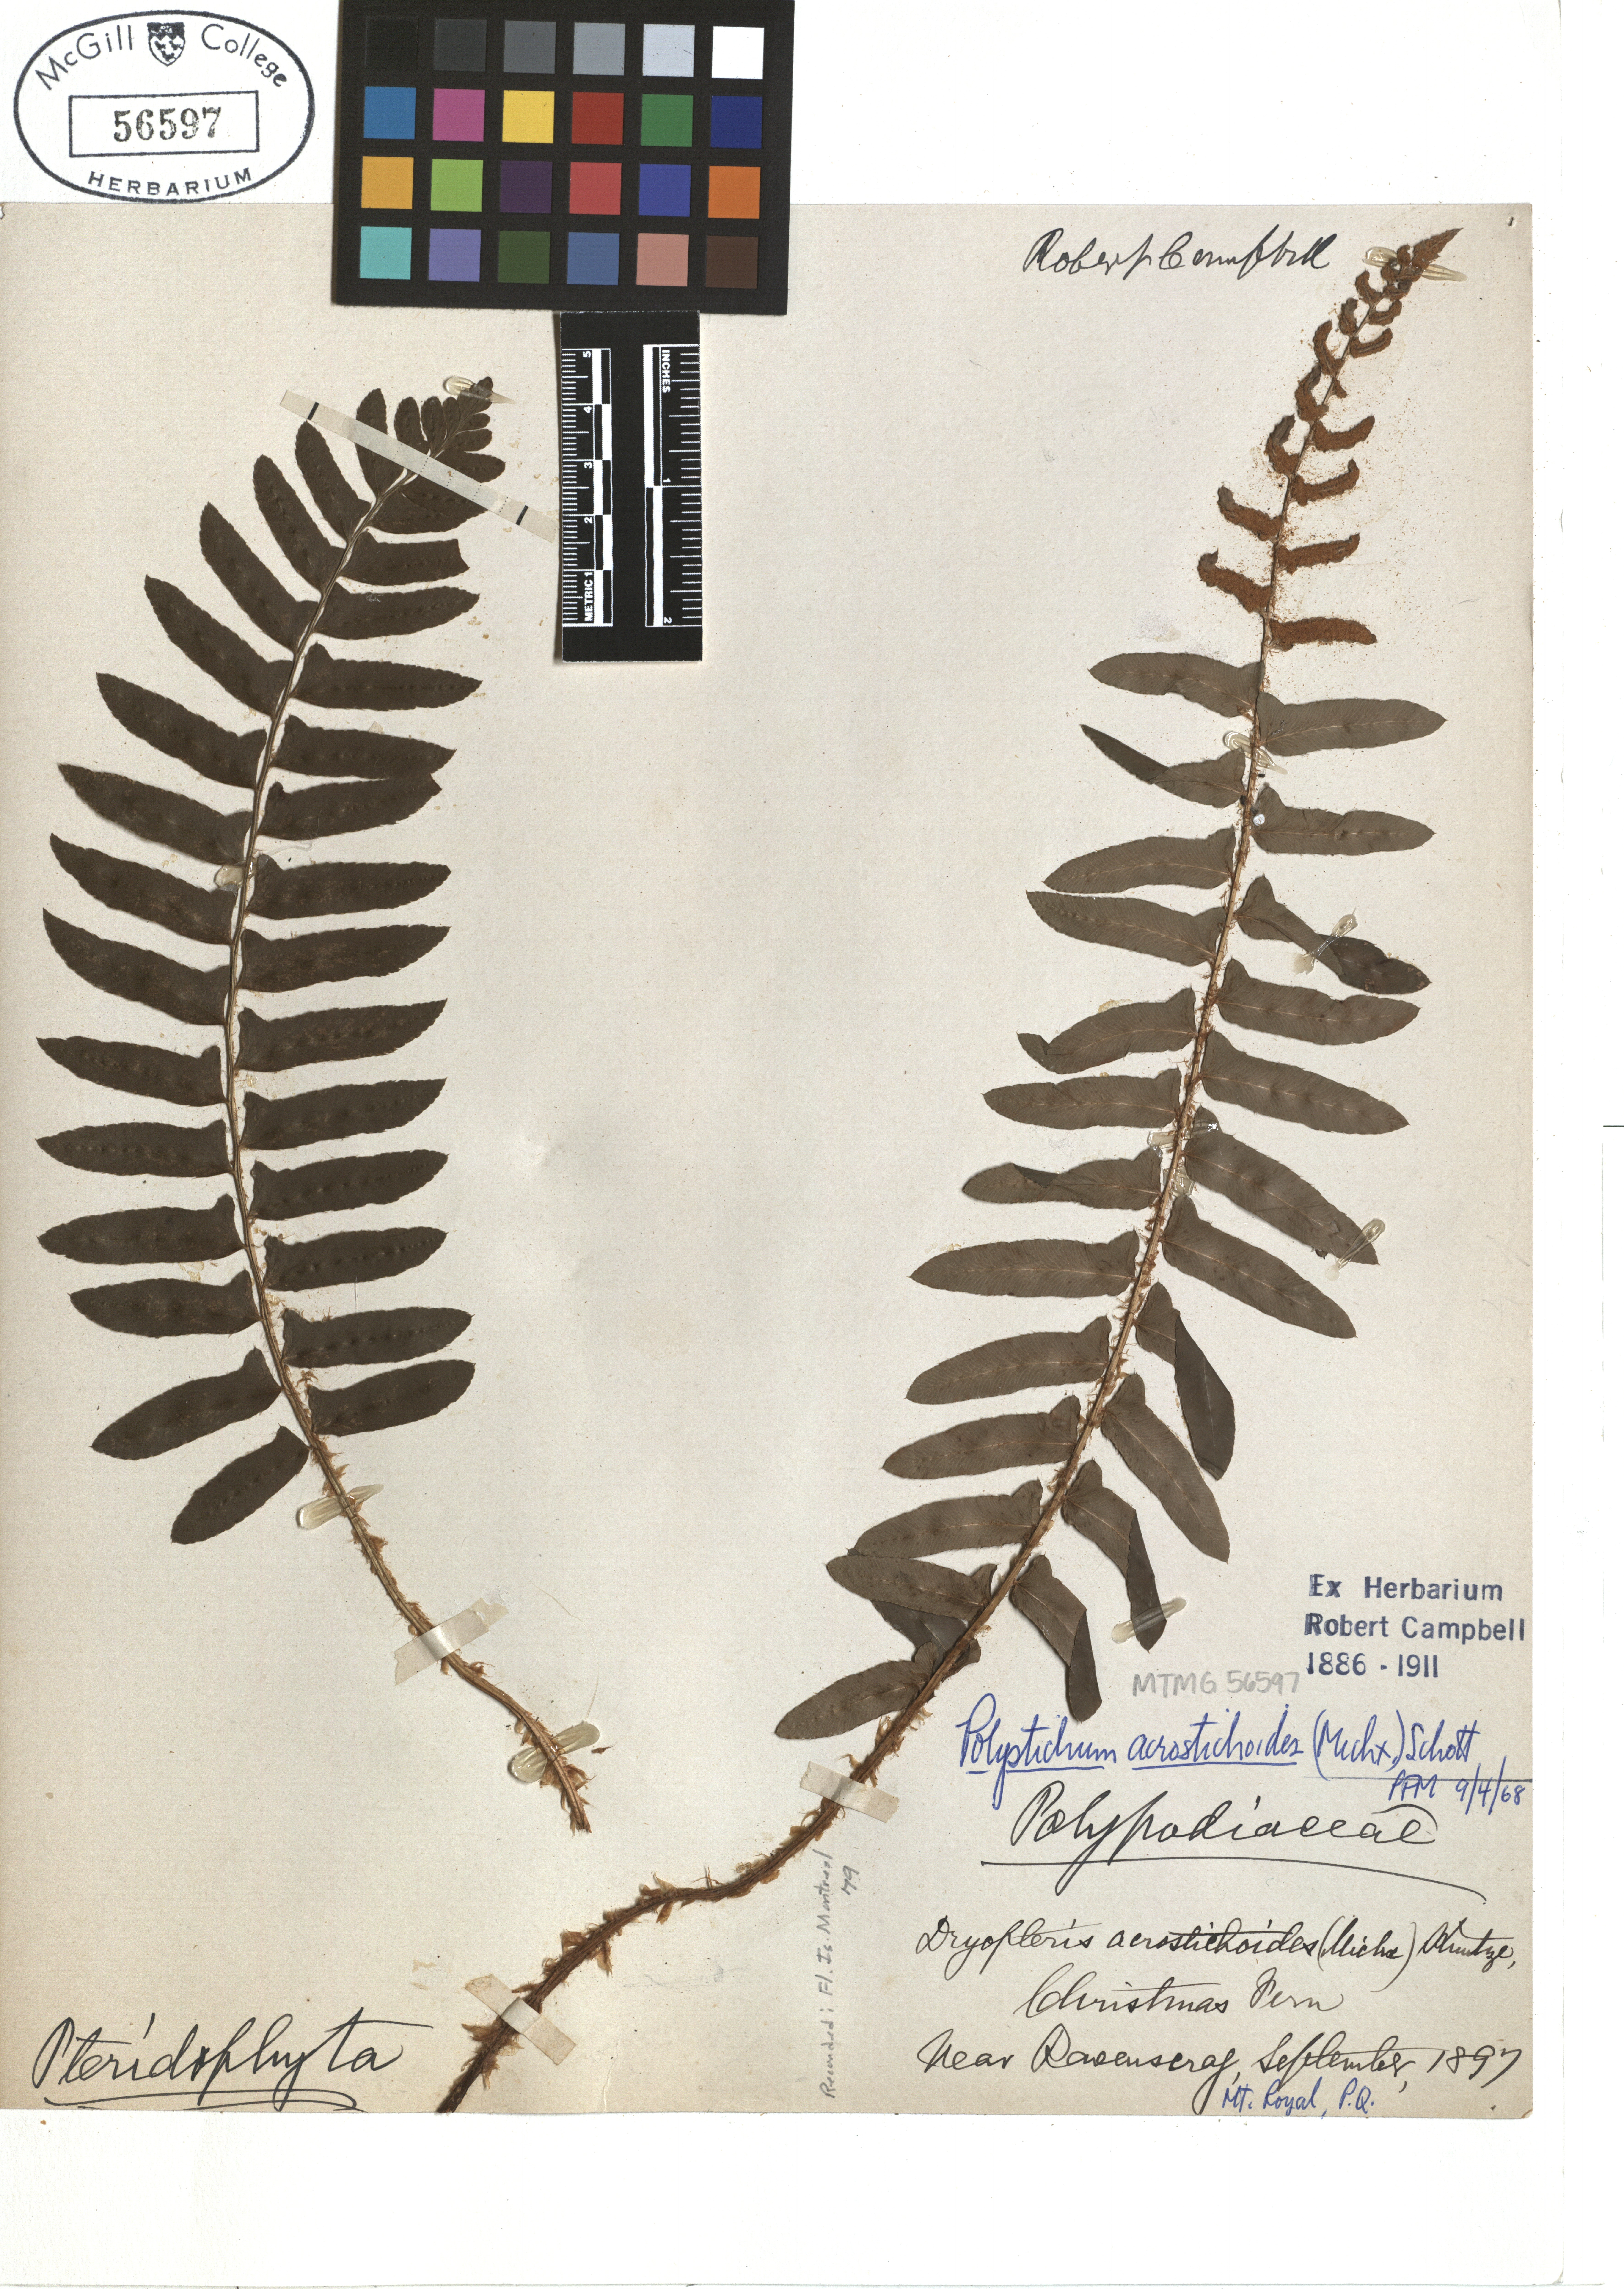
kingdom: Plantae
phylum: Tracheophyta
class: Polypodiopsida
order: Polypodiales
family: Dryopteridaceae
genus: Polystichum
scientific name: Polystichum acrostichoides
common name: Christmas fern
